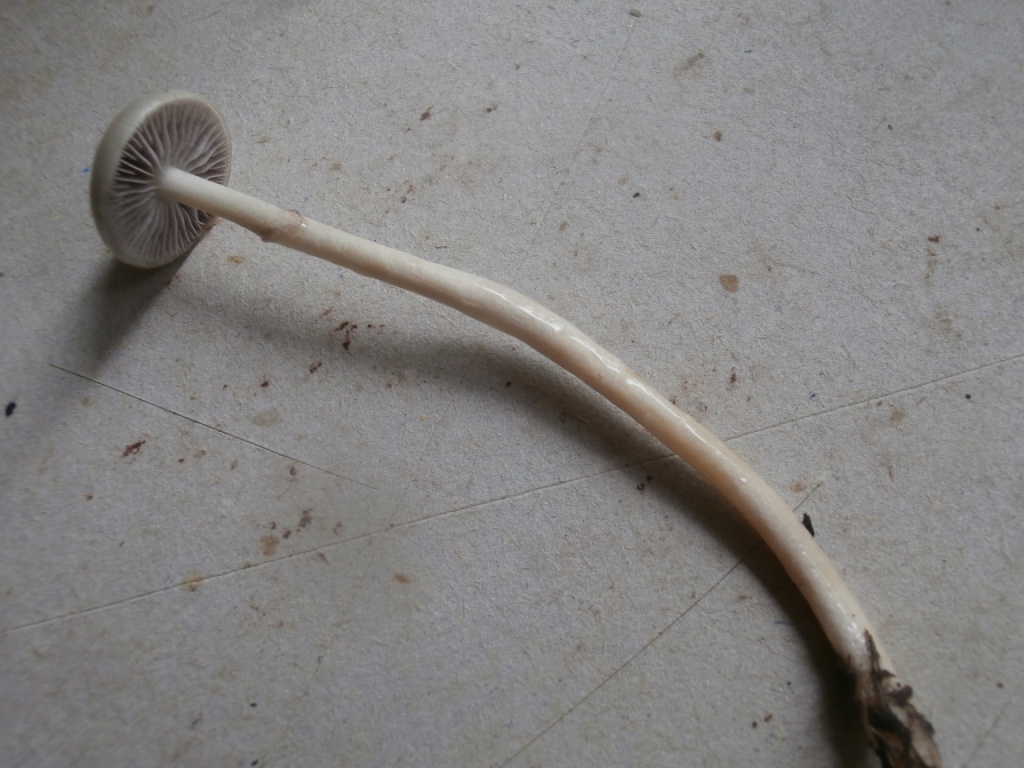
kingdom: Fungi
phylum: Basidiomycota
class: Agaricomycetes
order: Agaricales
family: Strophariaceae
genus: Protostropharia
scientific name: Protostropharia semiglobata
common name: halvkugleformet bredblad
